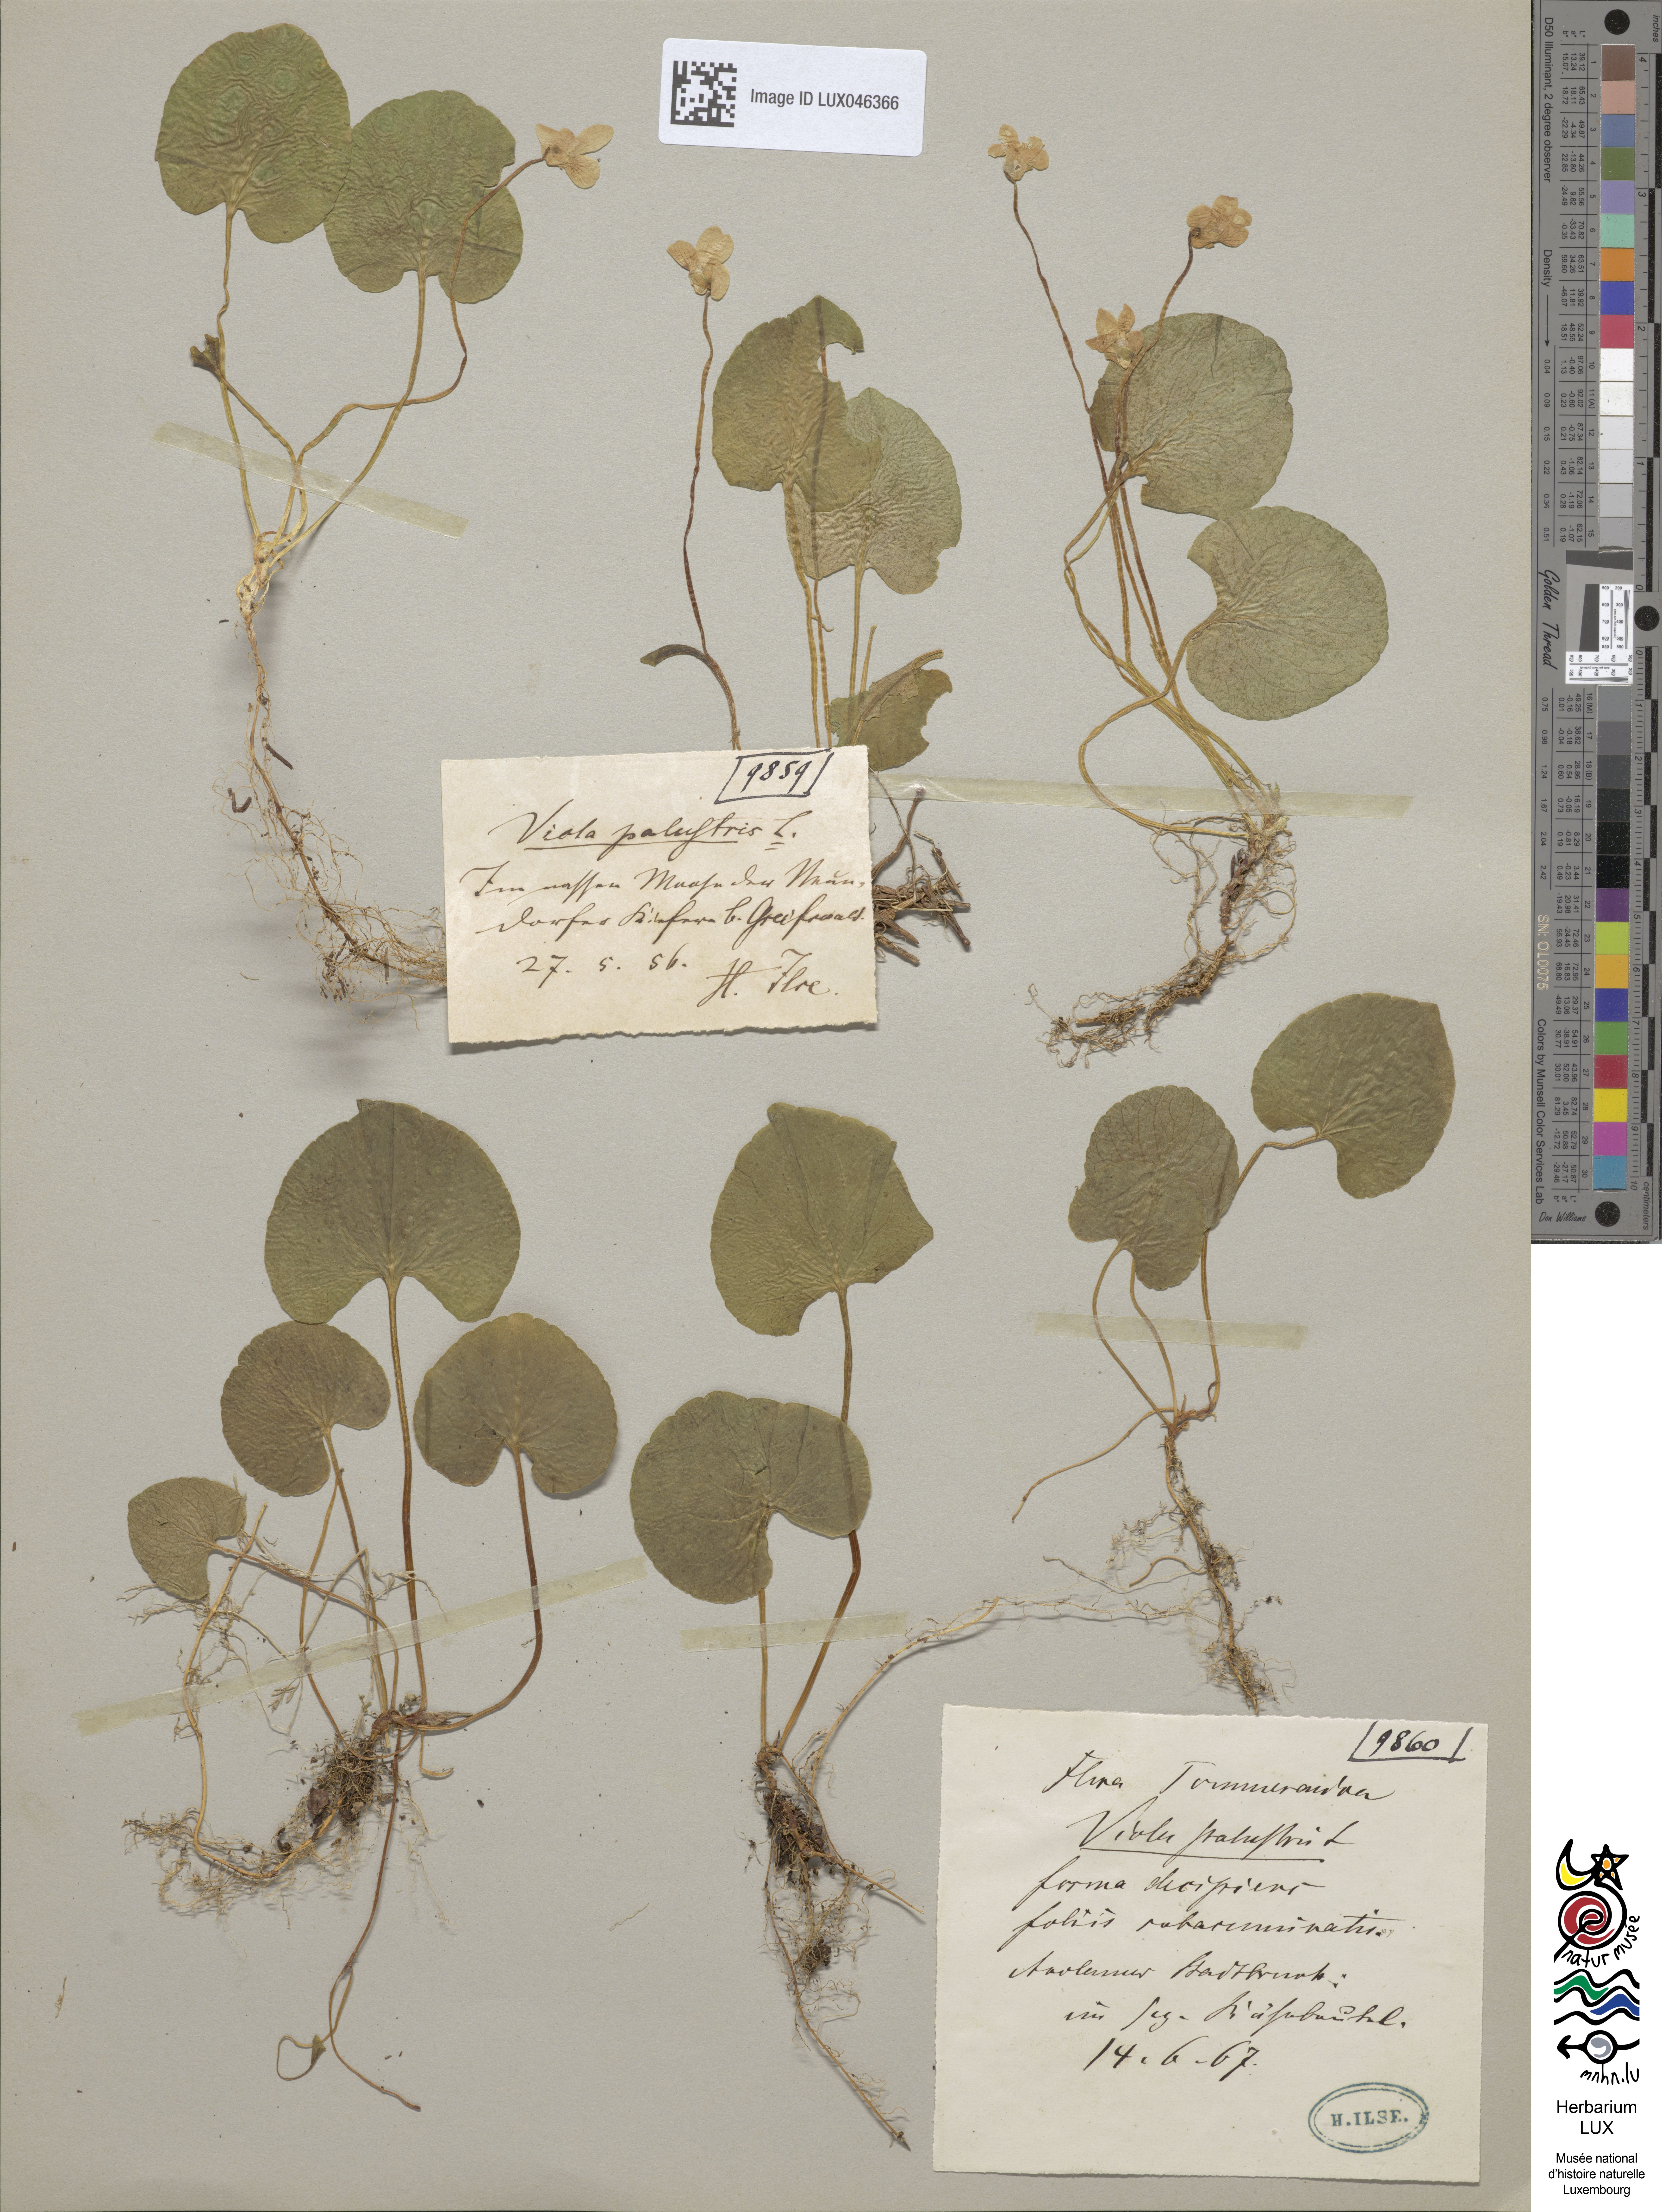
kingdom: Plantae
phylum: Tracheophyta
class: Magnoliopsida
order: Malpighiales
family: Violaceae
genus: Viola
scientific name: Viola palustris
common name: Marsh violet
